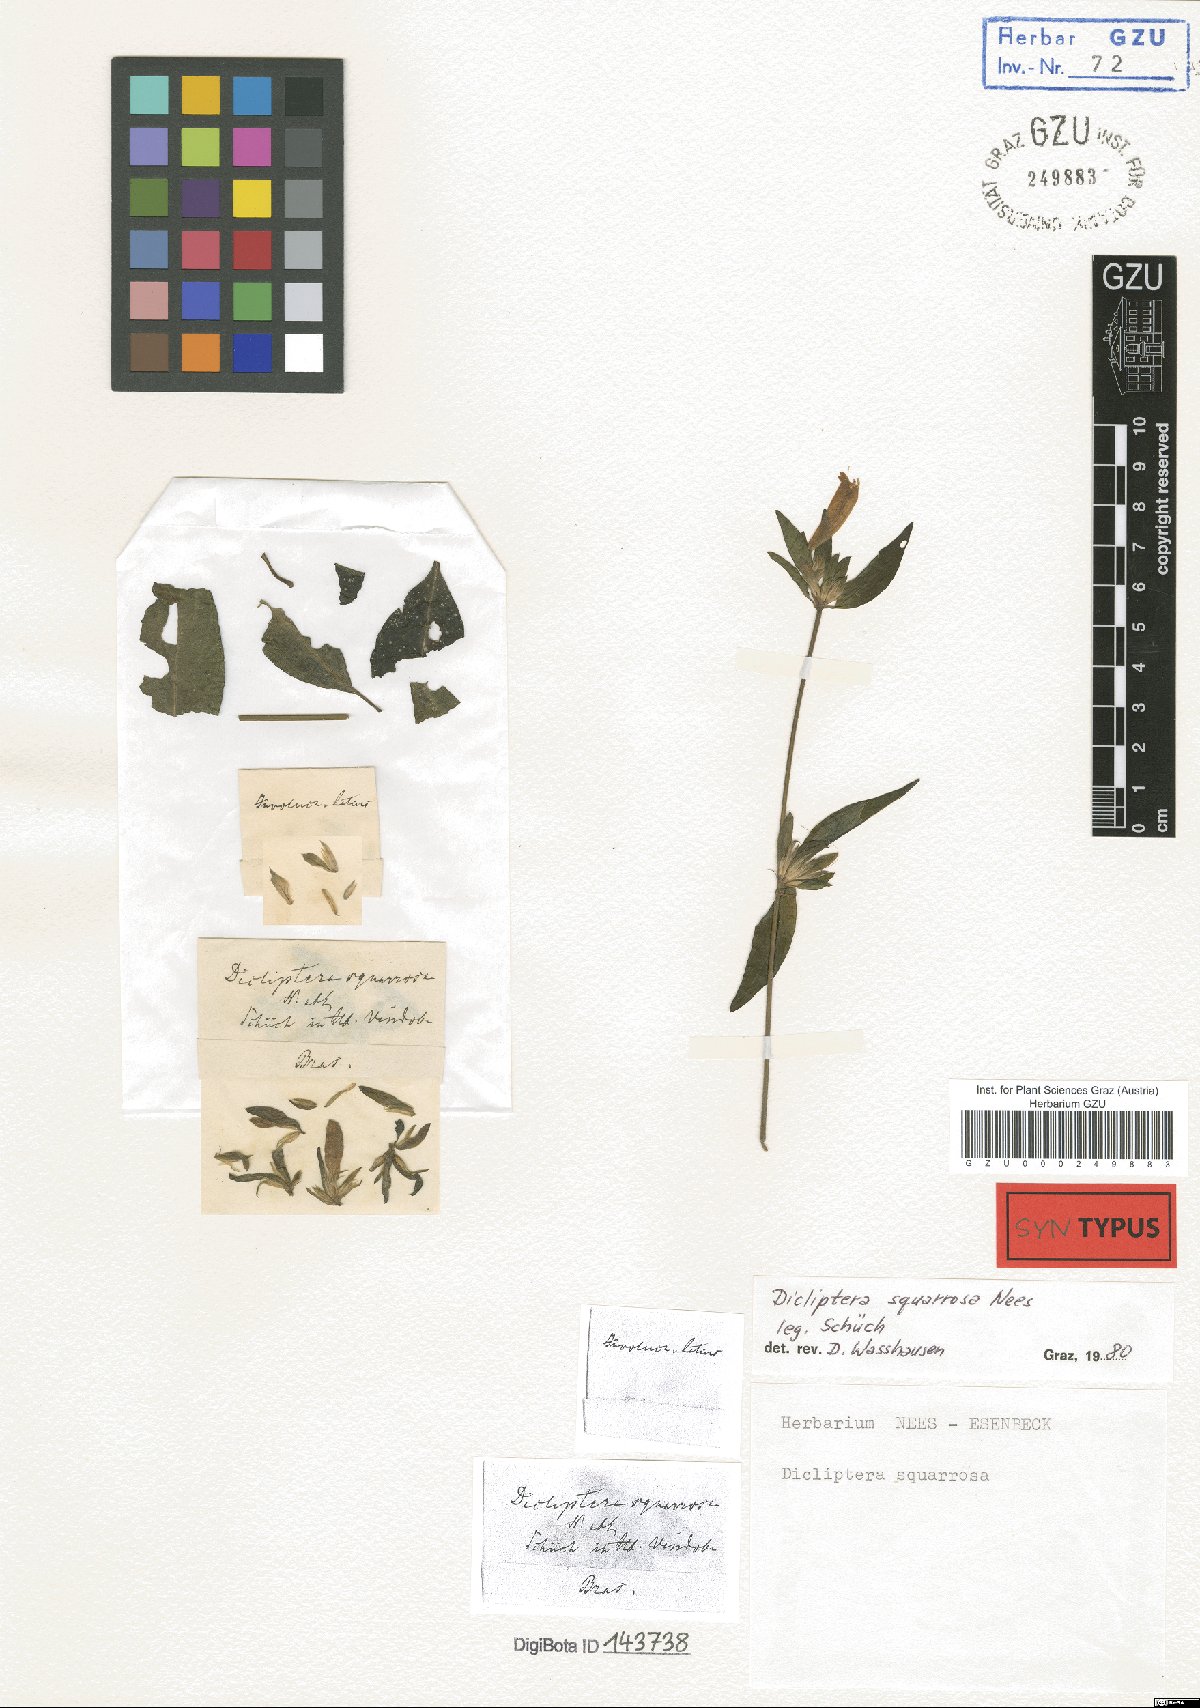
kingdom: Plantae
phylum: Tracheophyta
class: Magnoliopsida
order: Lamiales
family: Acanthaceae
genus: Dicliptera
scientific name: Dicliptera squarrosa
